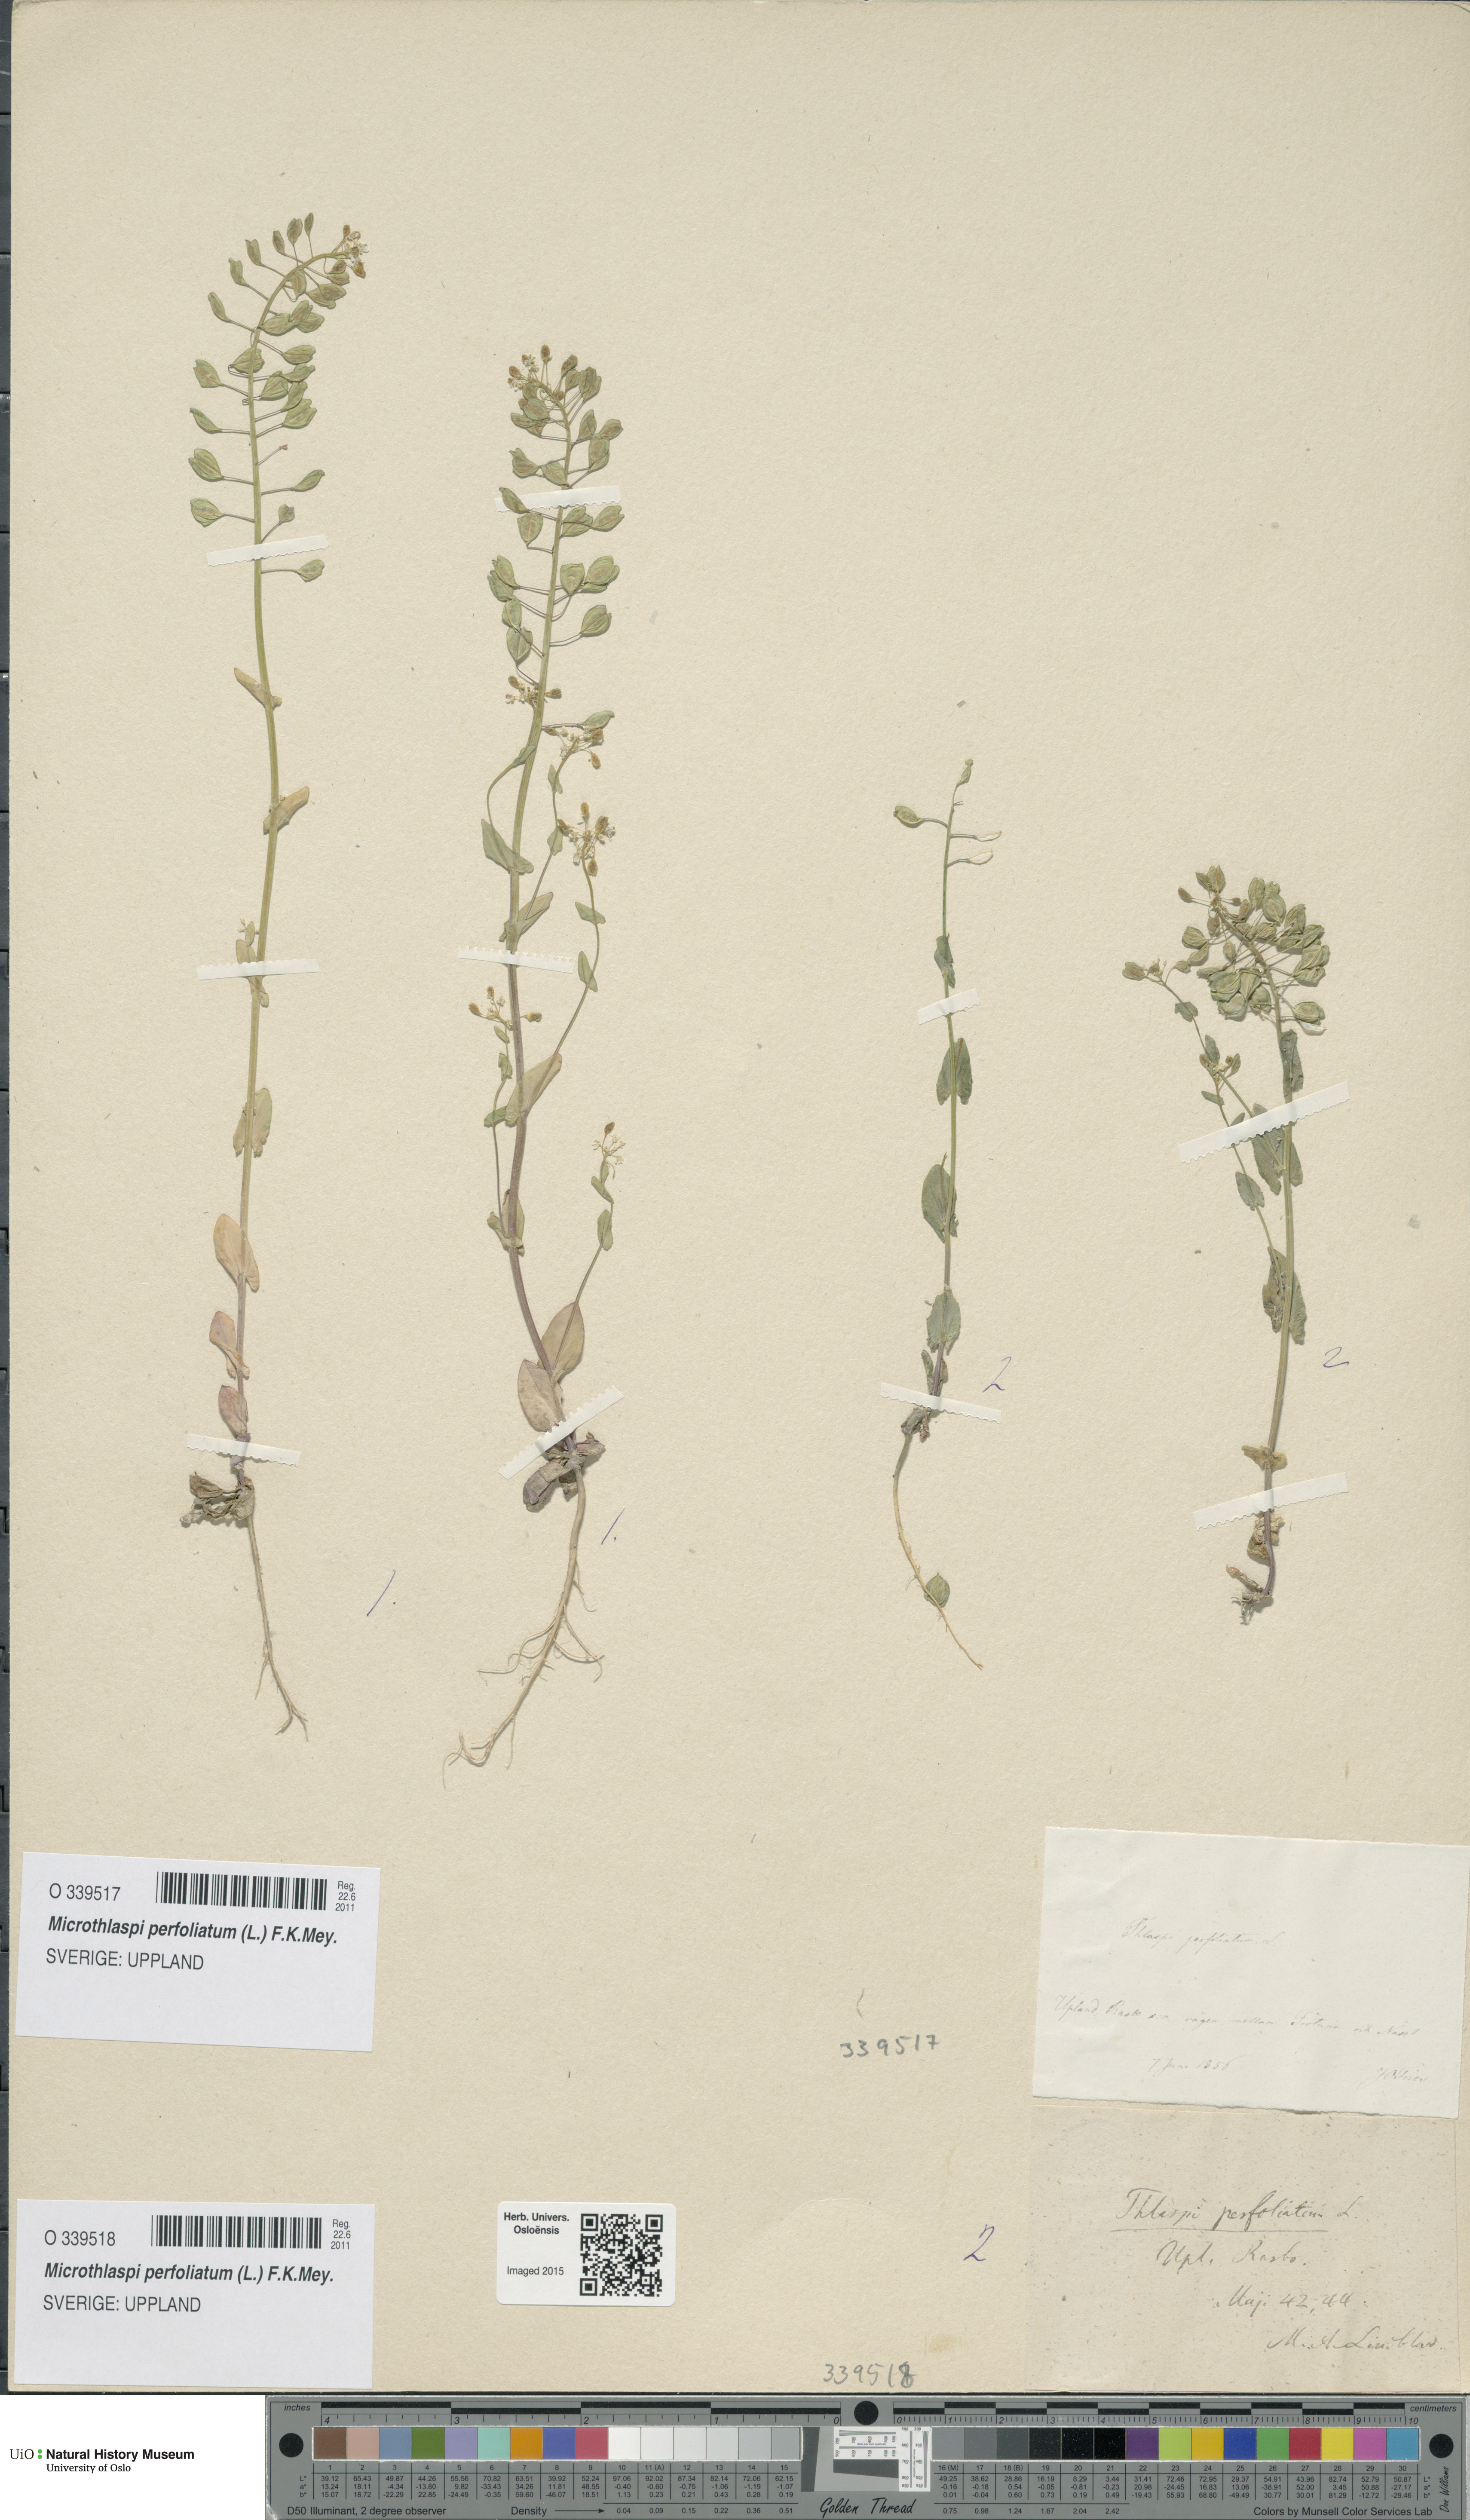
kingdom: Plantae
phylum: Tracheophyta
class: Magnoliopsida
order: Brassicales
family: Brassicaceae
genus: Noccaea
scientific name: Noccaea perfoliata
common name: Perfoliate pennycress
